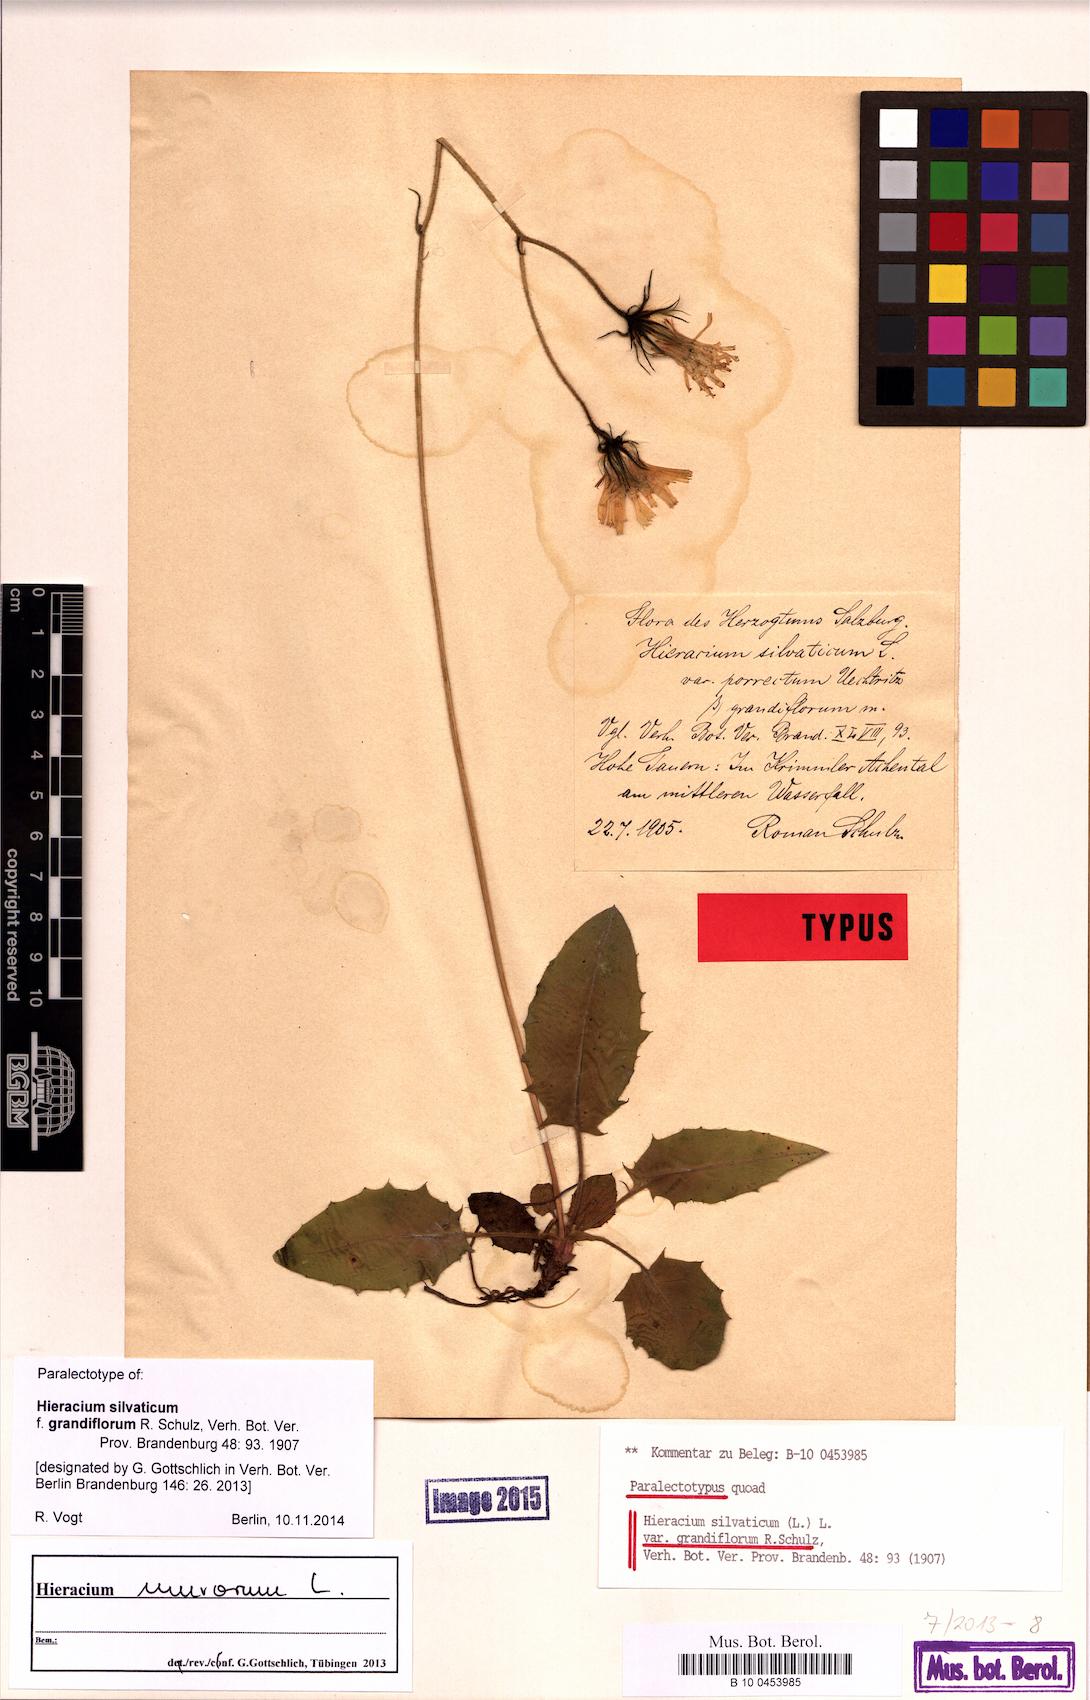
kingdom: Plantae
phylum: Tracheophyta
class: Magnoliopsida
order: Asterales
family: Asteraceae
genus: Hieracium
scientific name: Hieracium murorum
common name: Wall hawkweed
